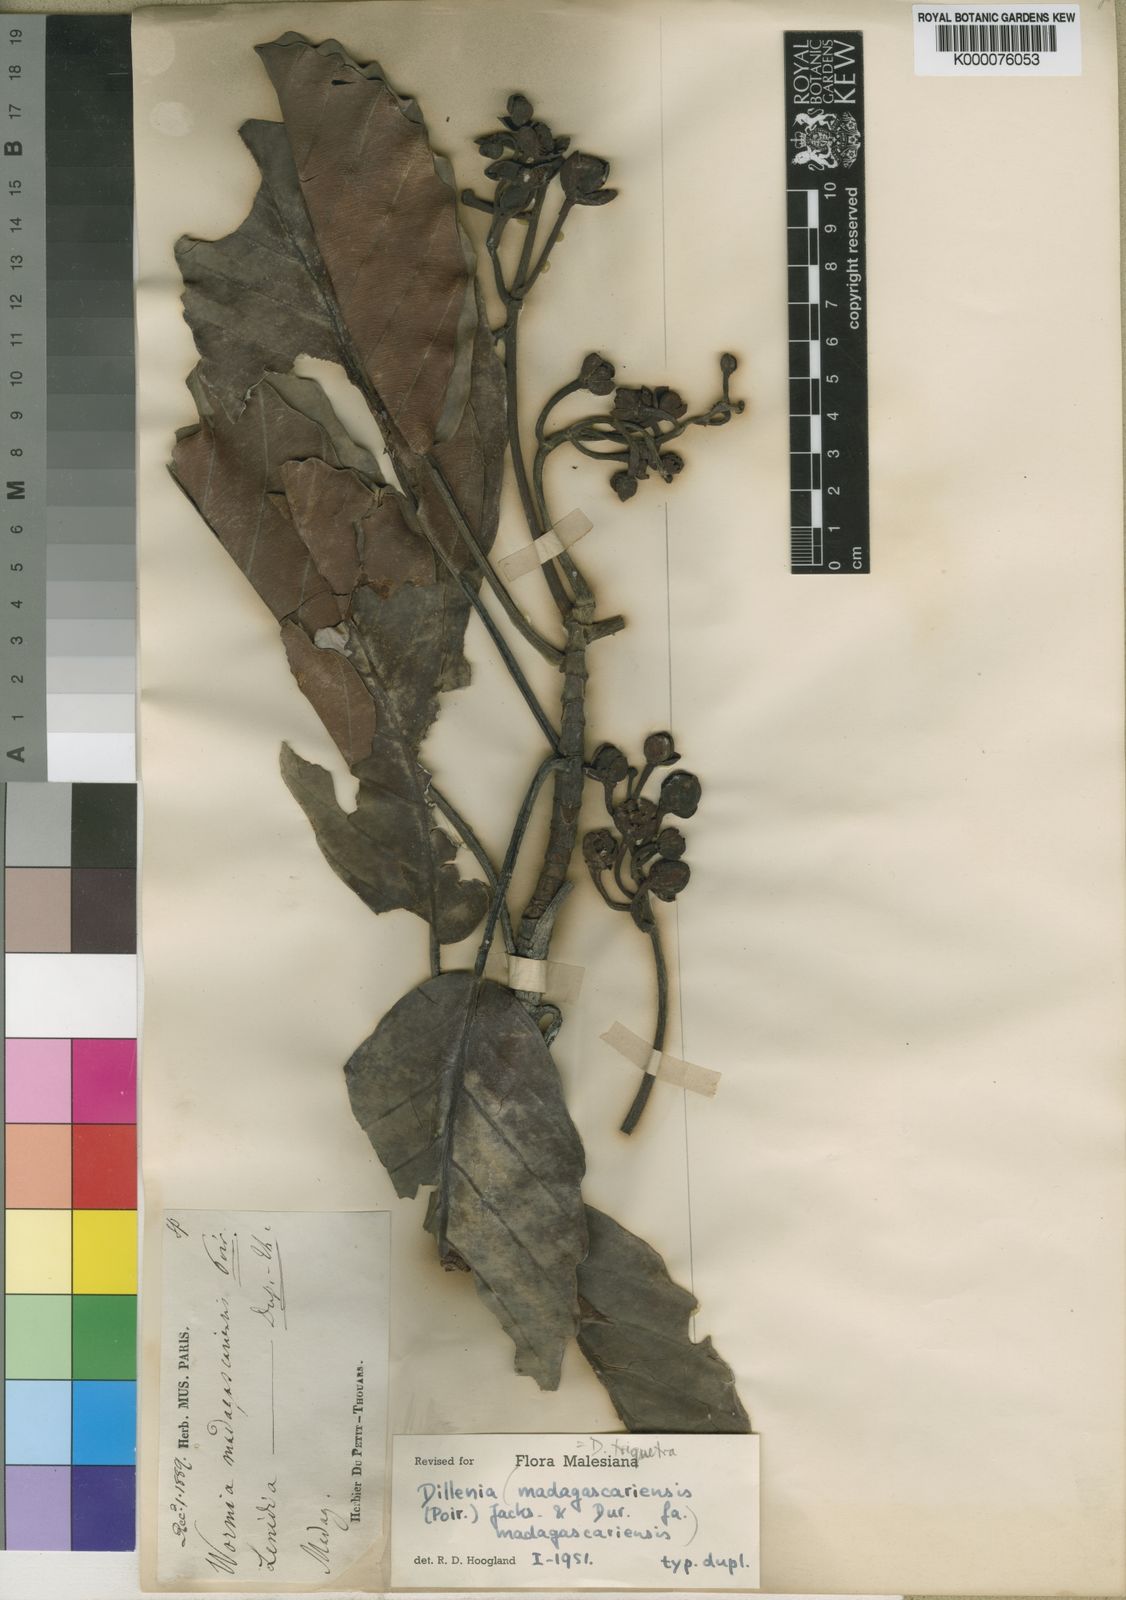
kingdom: Plantae
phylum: Tracheophyta
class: Magnoliopsida
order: Dilleniales
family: Dilleniaceae
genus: Dillenia
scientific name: Dillenia triquetra
